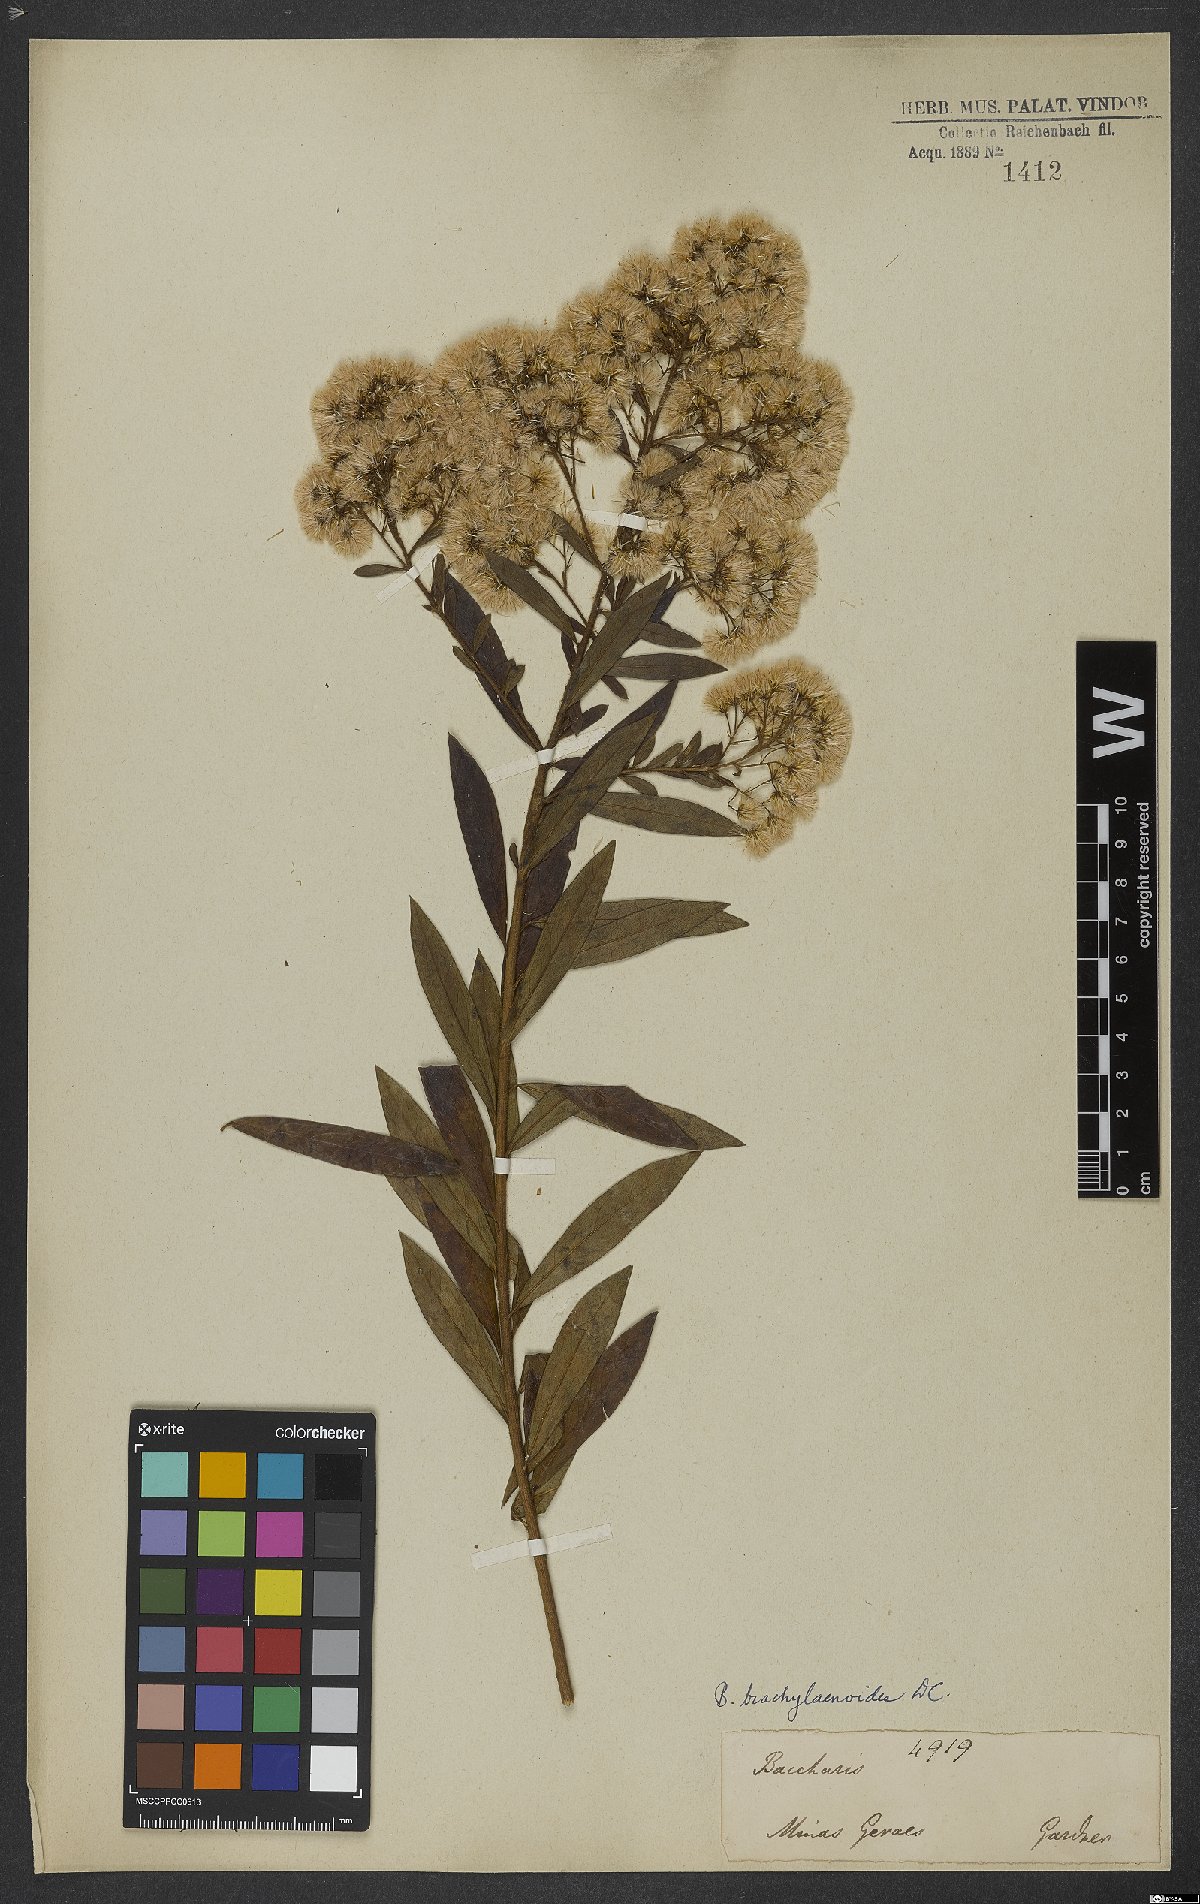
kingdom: Plantae
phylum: Tracheophyta
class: Magnoliopsida
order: Asterales
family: Asteraceae
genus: Baccharis
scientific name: Baccharis oblongifolia
